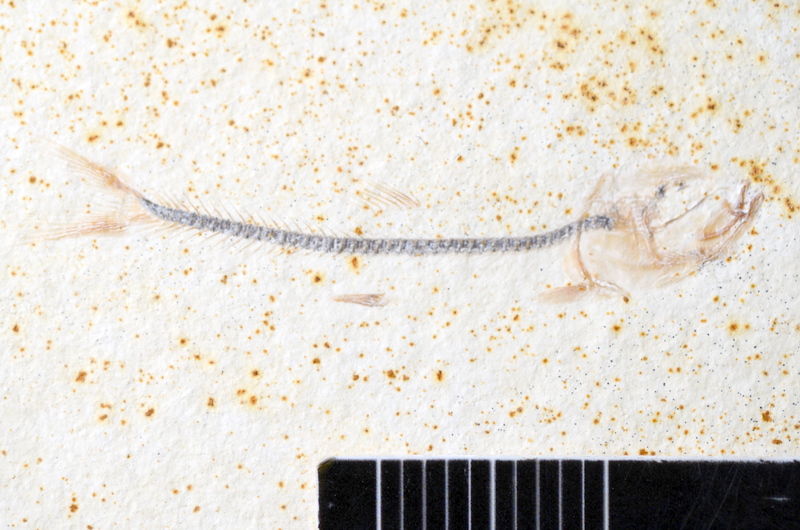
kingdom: Animalia
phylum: Chordata
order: Salmoniformes
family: Orthogonikleithridae
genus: Orthogonikleithrus
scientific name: Orthogonikleithrus hoelli
